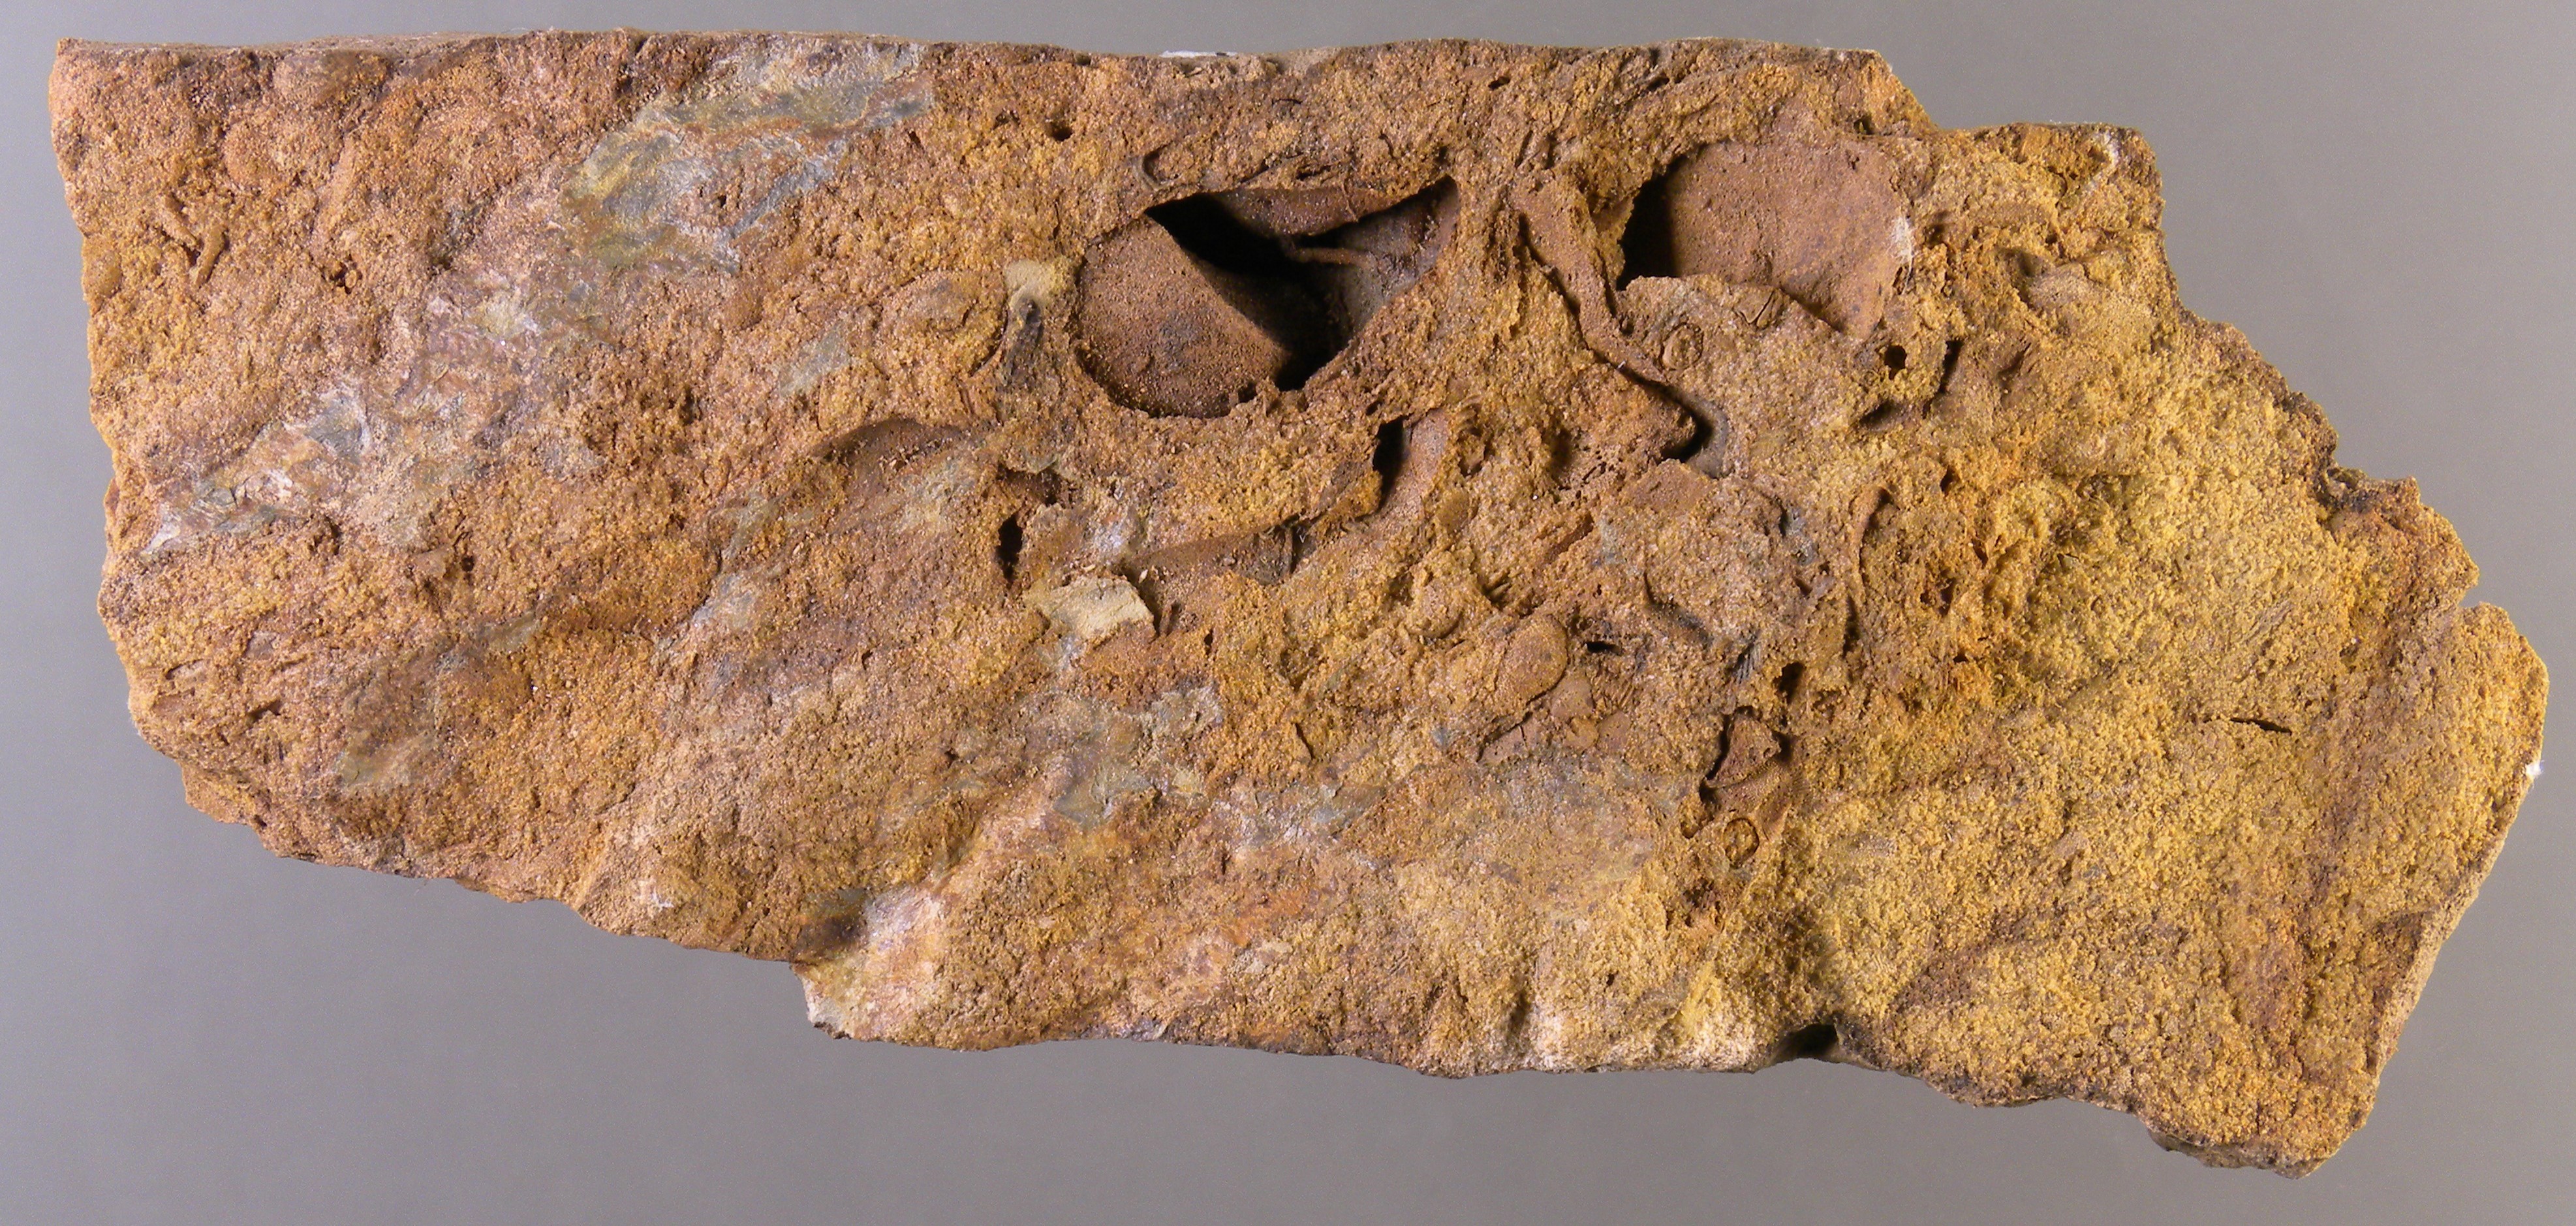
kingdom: Animalia
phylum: Mollusca
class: Bivalvia
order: Myalinida
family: Ambonychiidae
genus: Mytilarca
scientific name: Mytilarca
